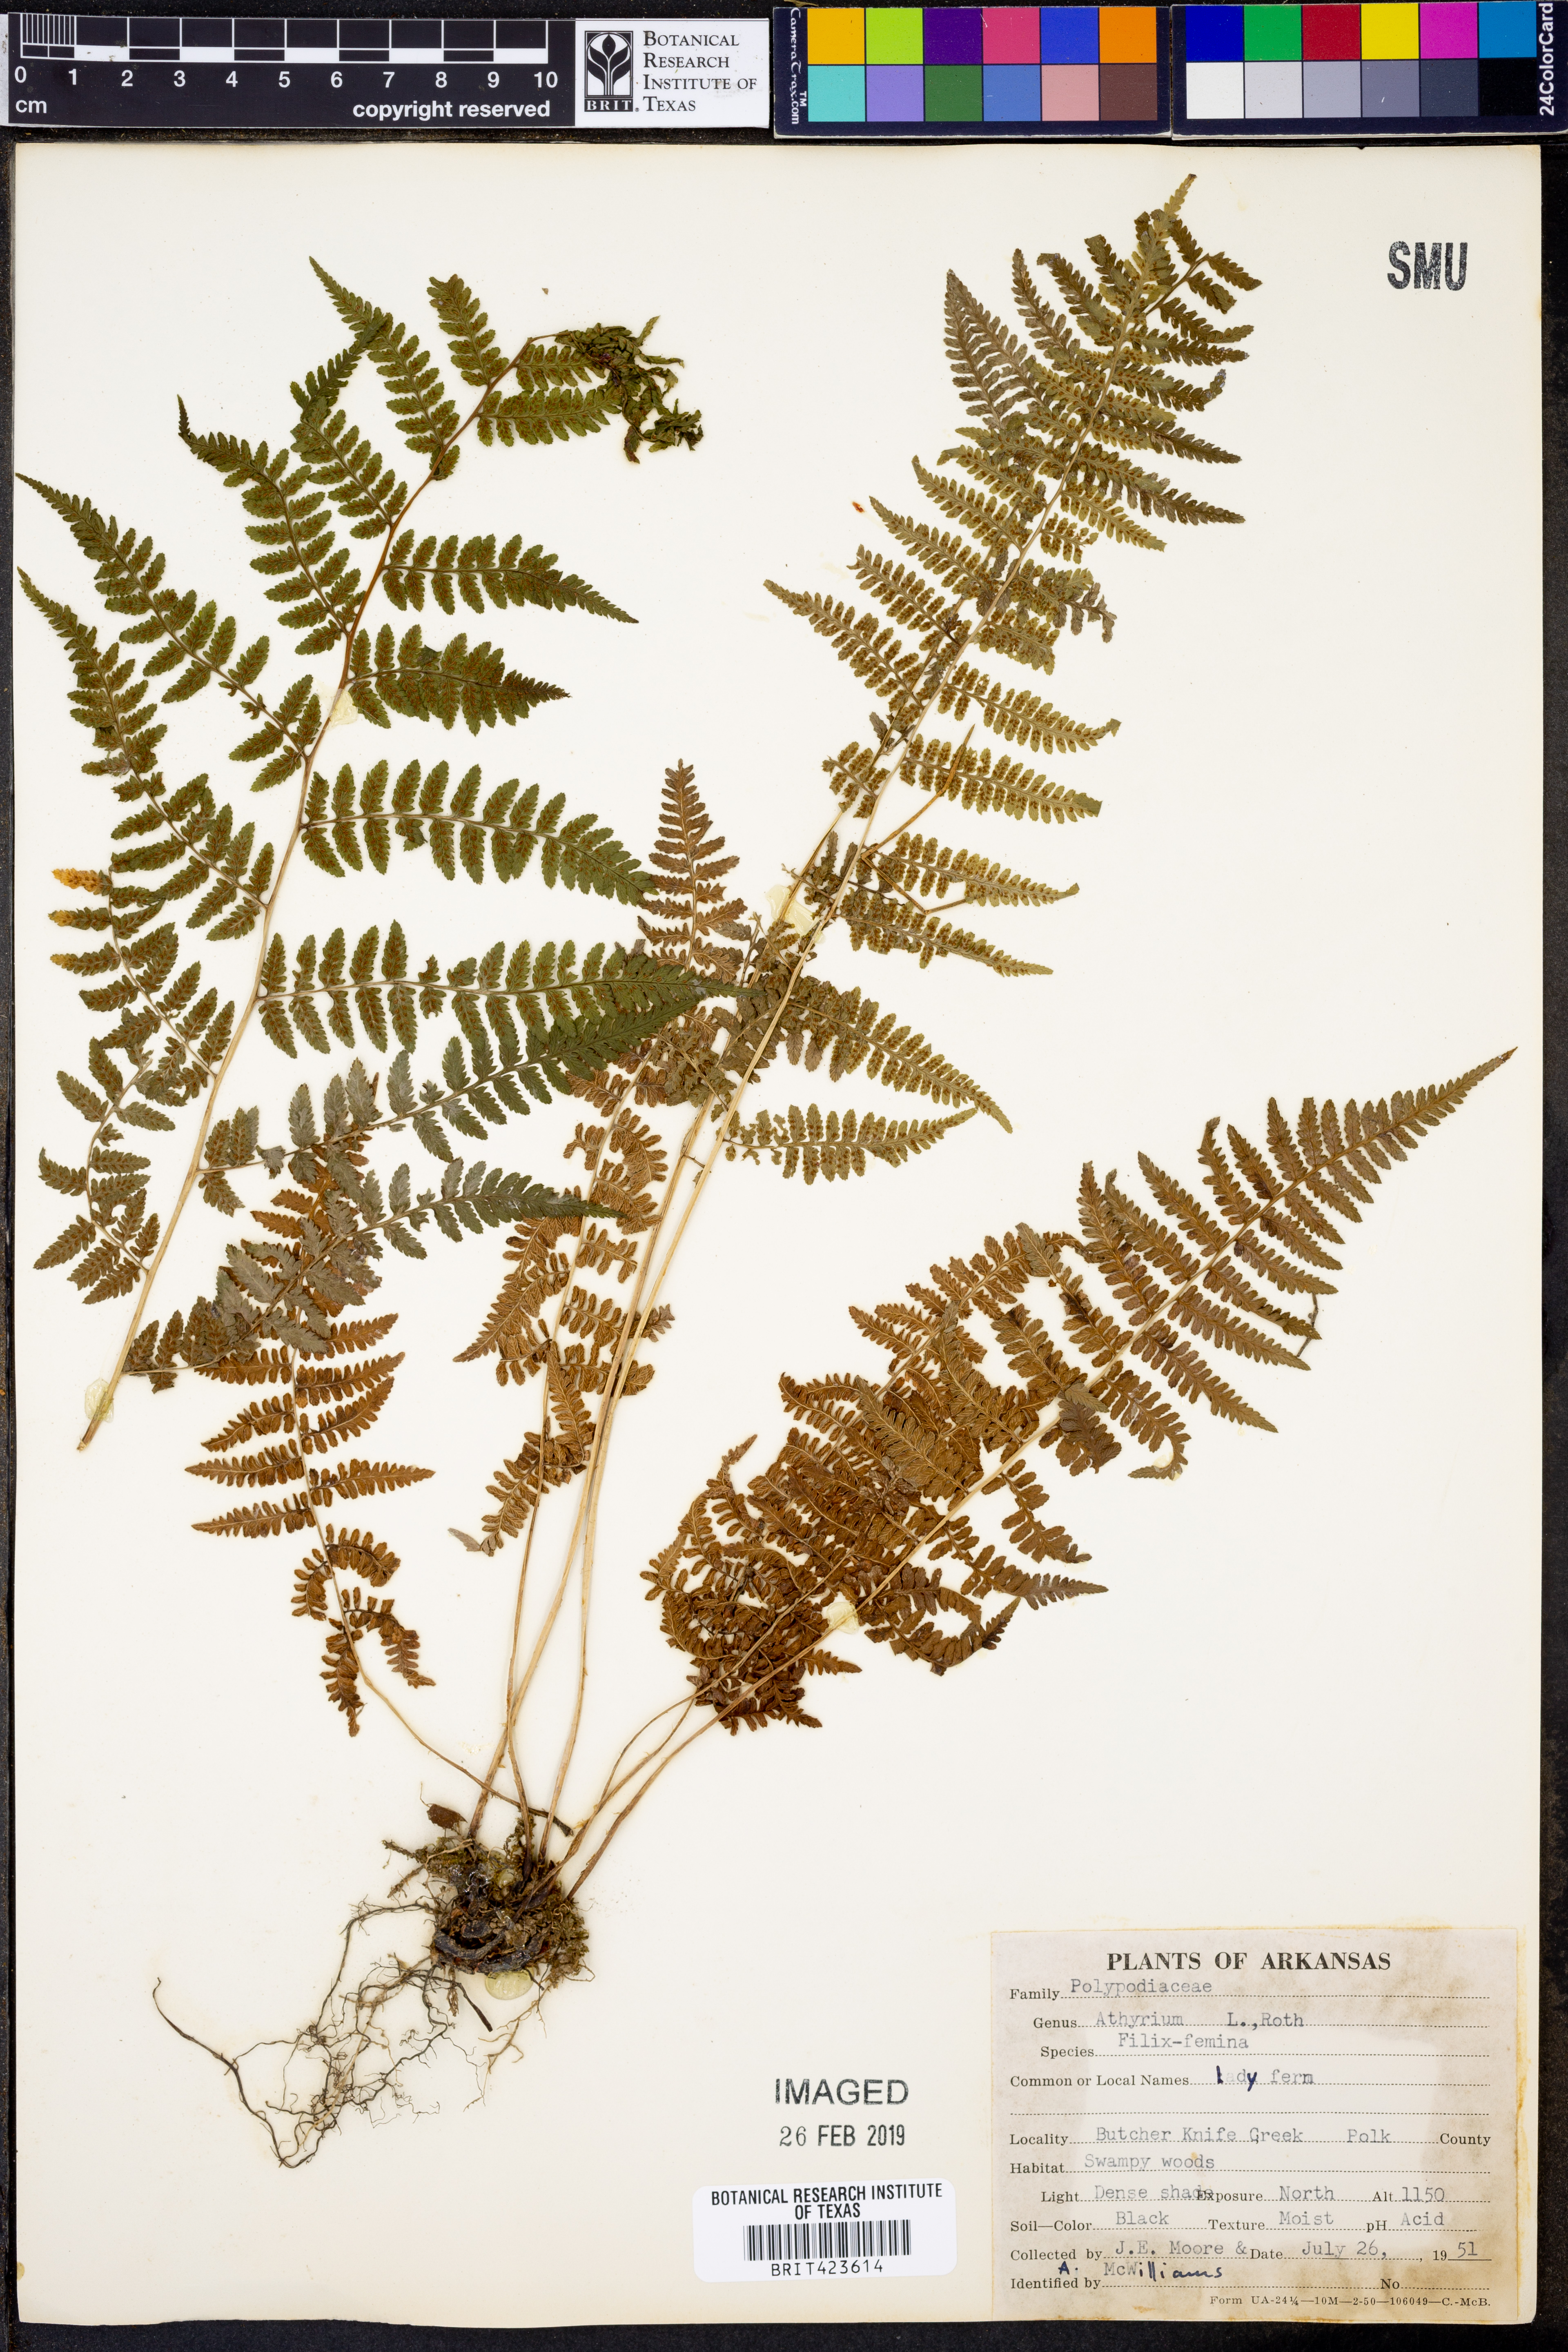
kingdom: Plantae
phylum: Tracheophyta
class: Polypodiopsida
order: Polypodiales
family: Athyriaceae
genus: Athyrium
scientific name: Athyrium filix-femina
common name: Lady fern
